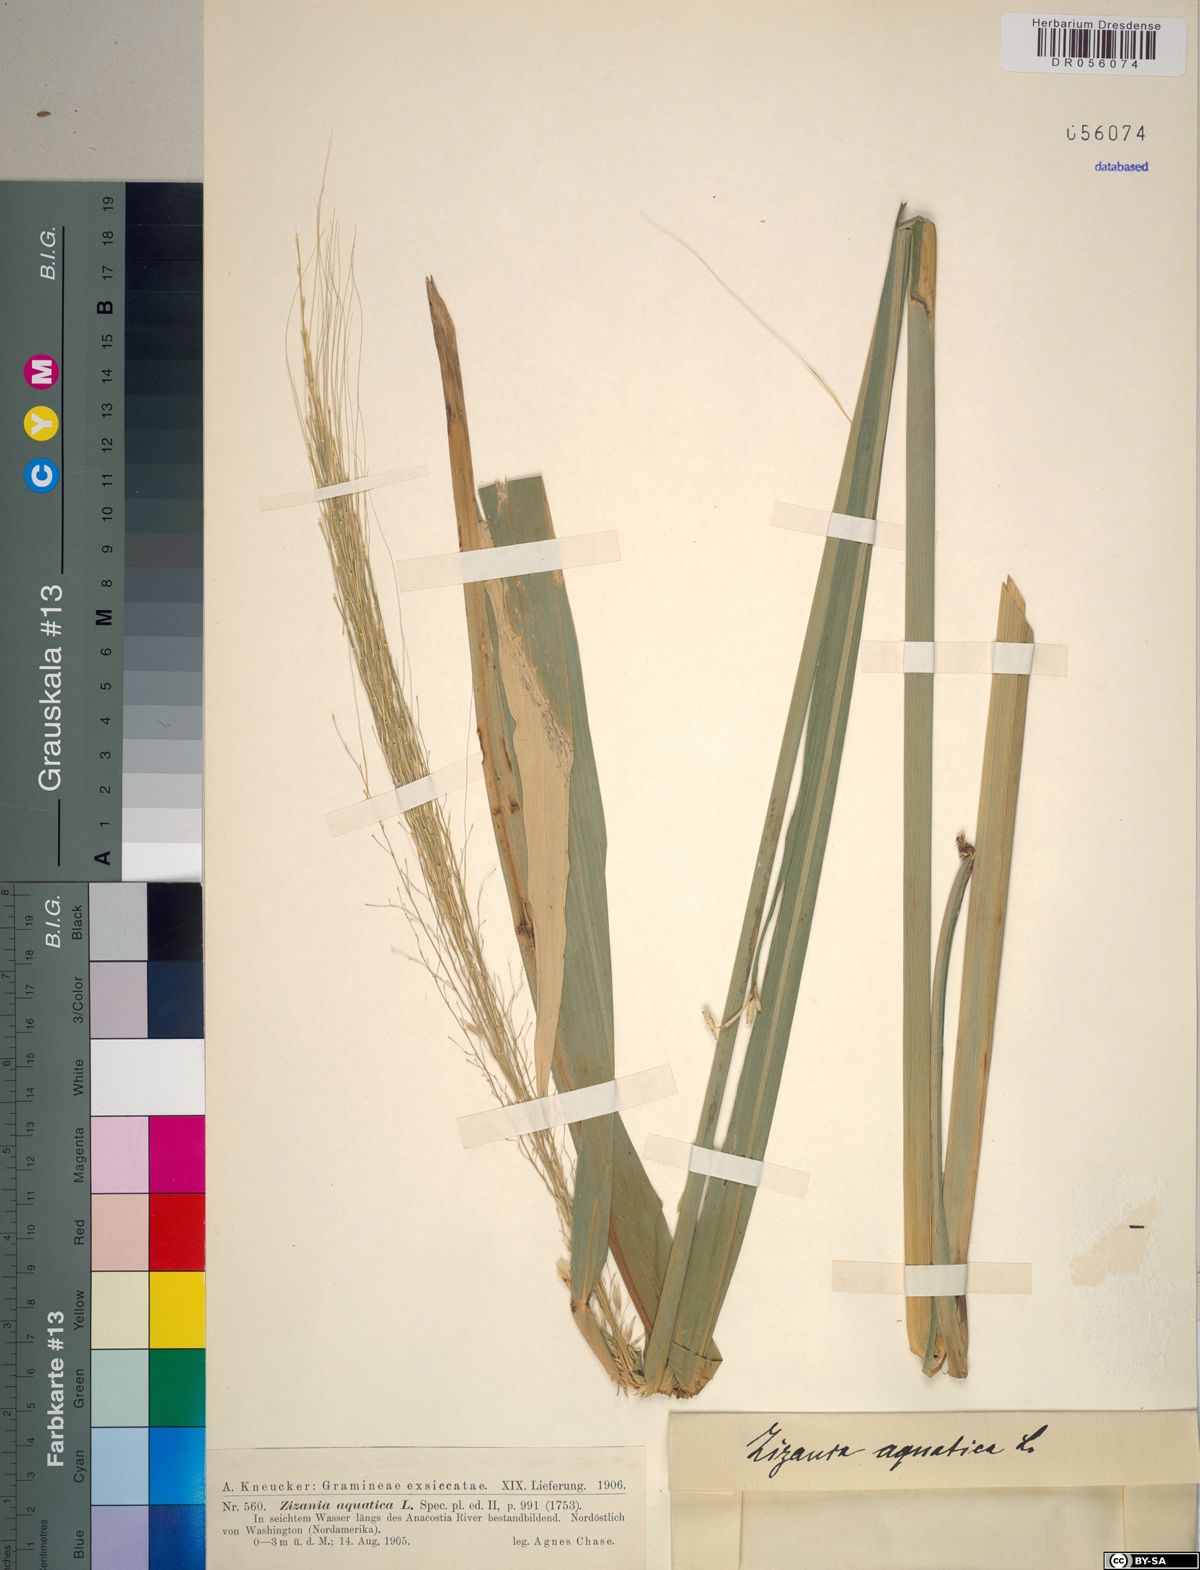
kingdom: Plantae
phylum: Tracheophyta
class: Liliopsida
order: Poales
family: Poaceae
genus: Zizania
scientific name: Zizania aquatica
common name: Annual wildrice
